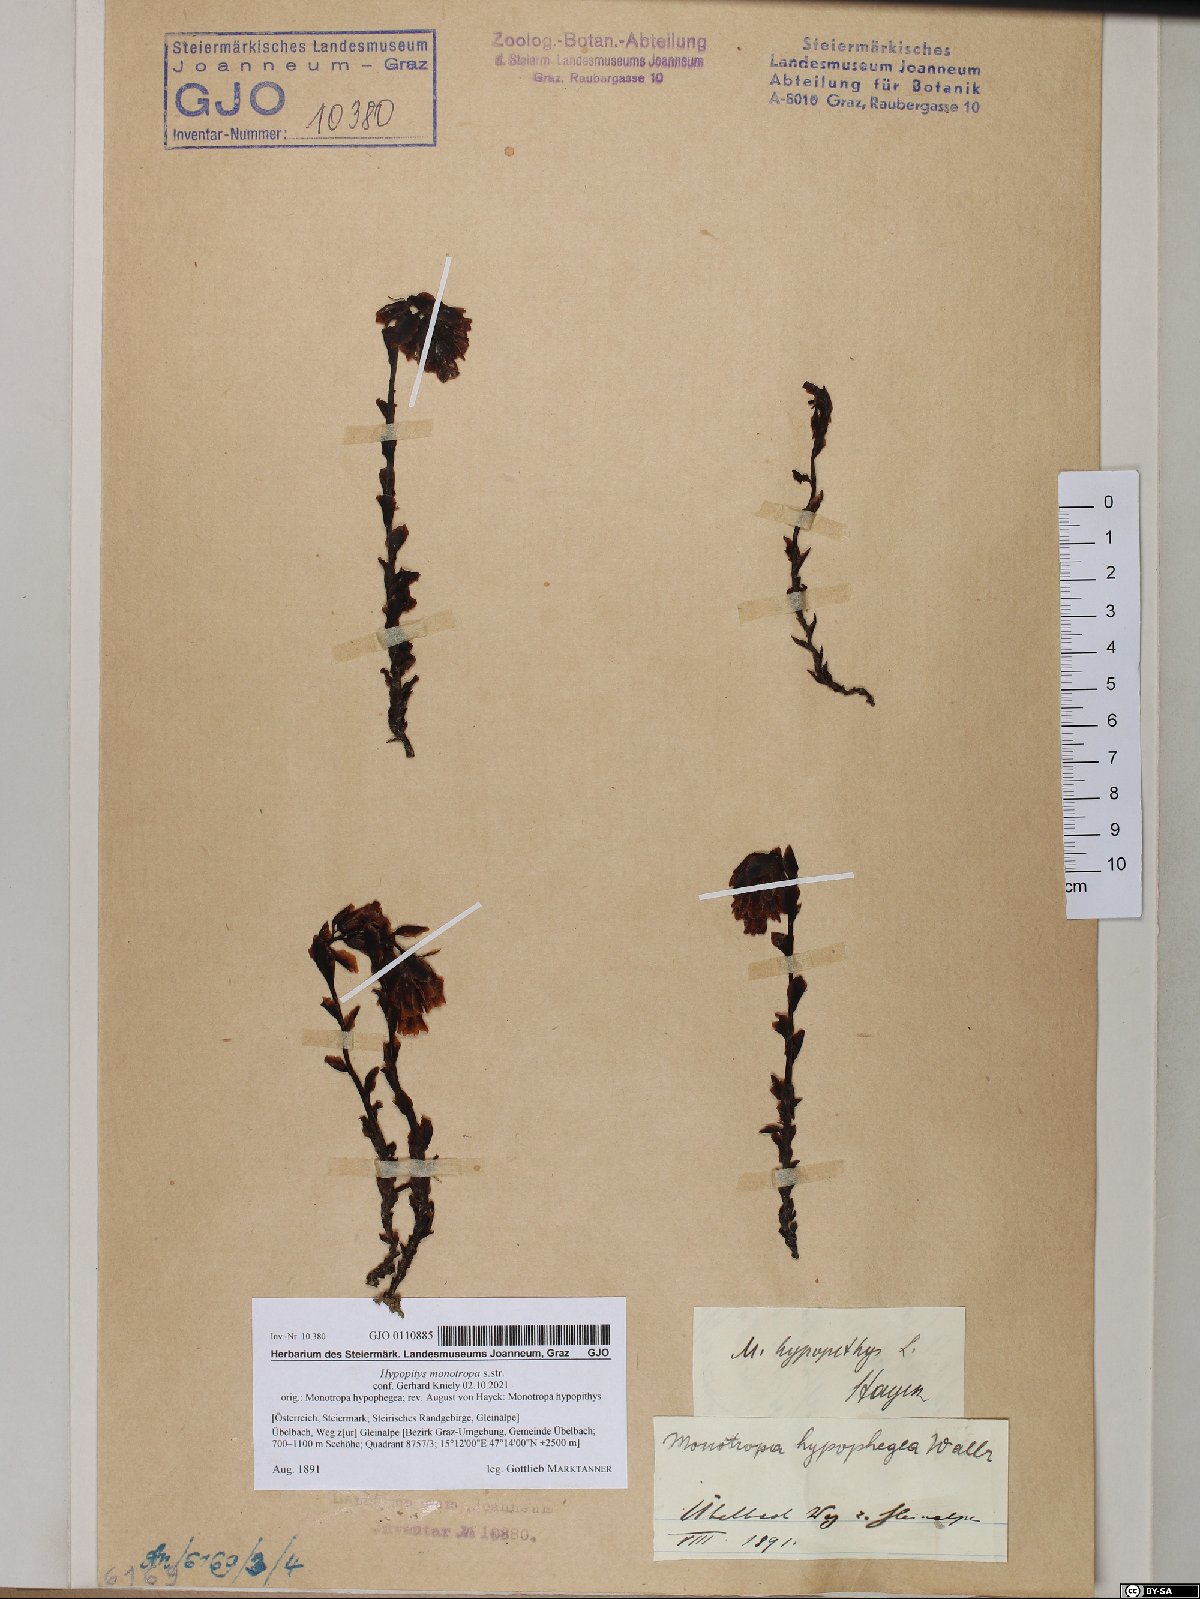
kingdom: Plantae
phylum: Tracheophyta
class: Magnoliopsida
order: Ericales
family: Ericaceae
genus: Hypopitys
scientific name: Hypopitys monotropa
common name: Yellow bird's-nest
